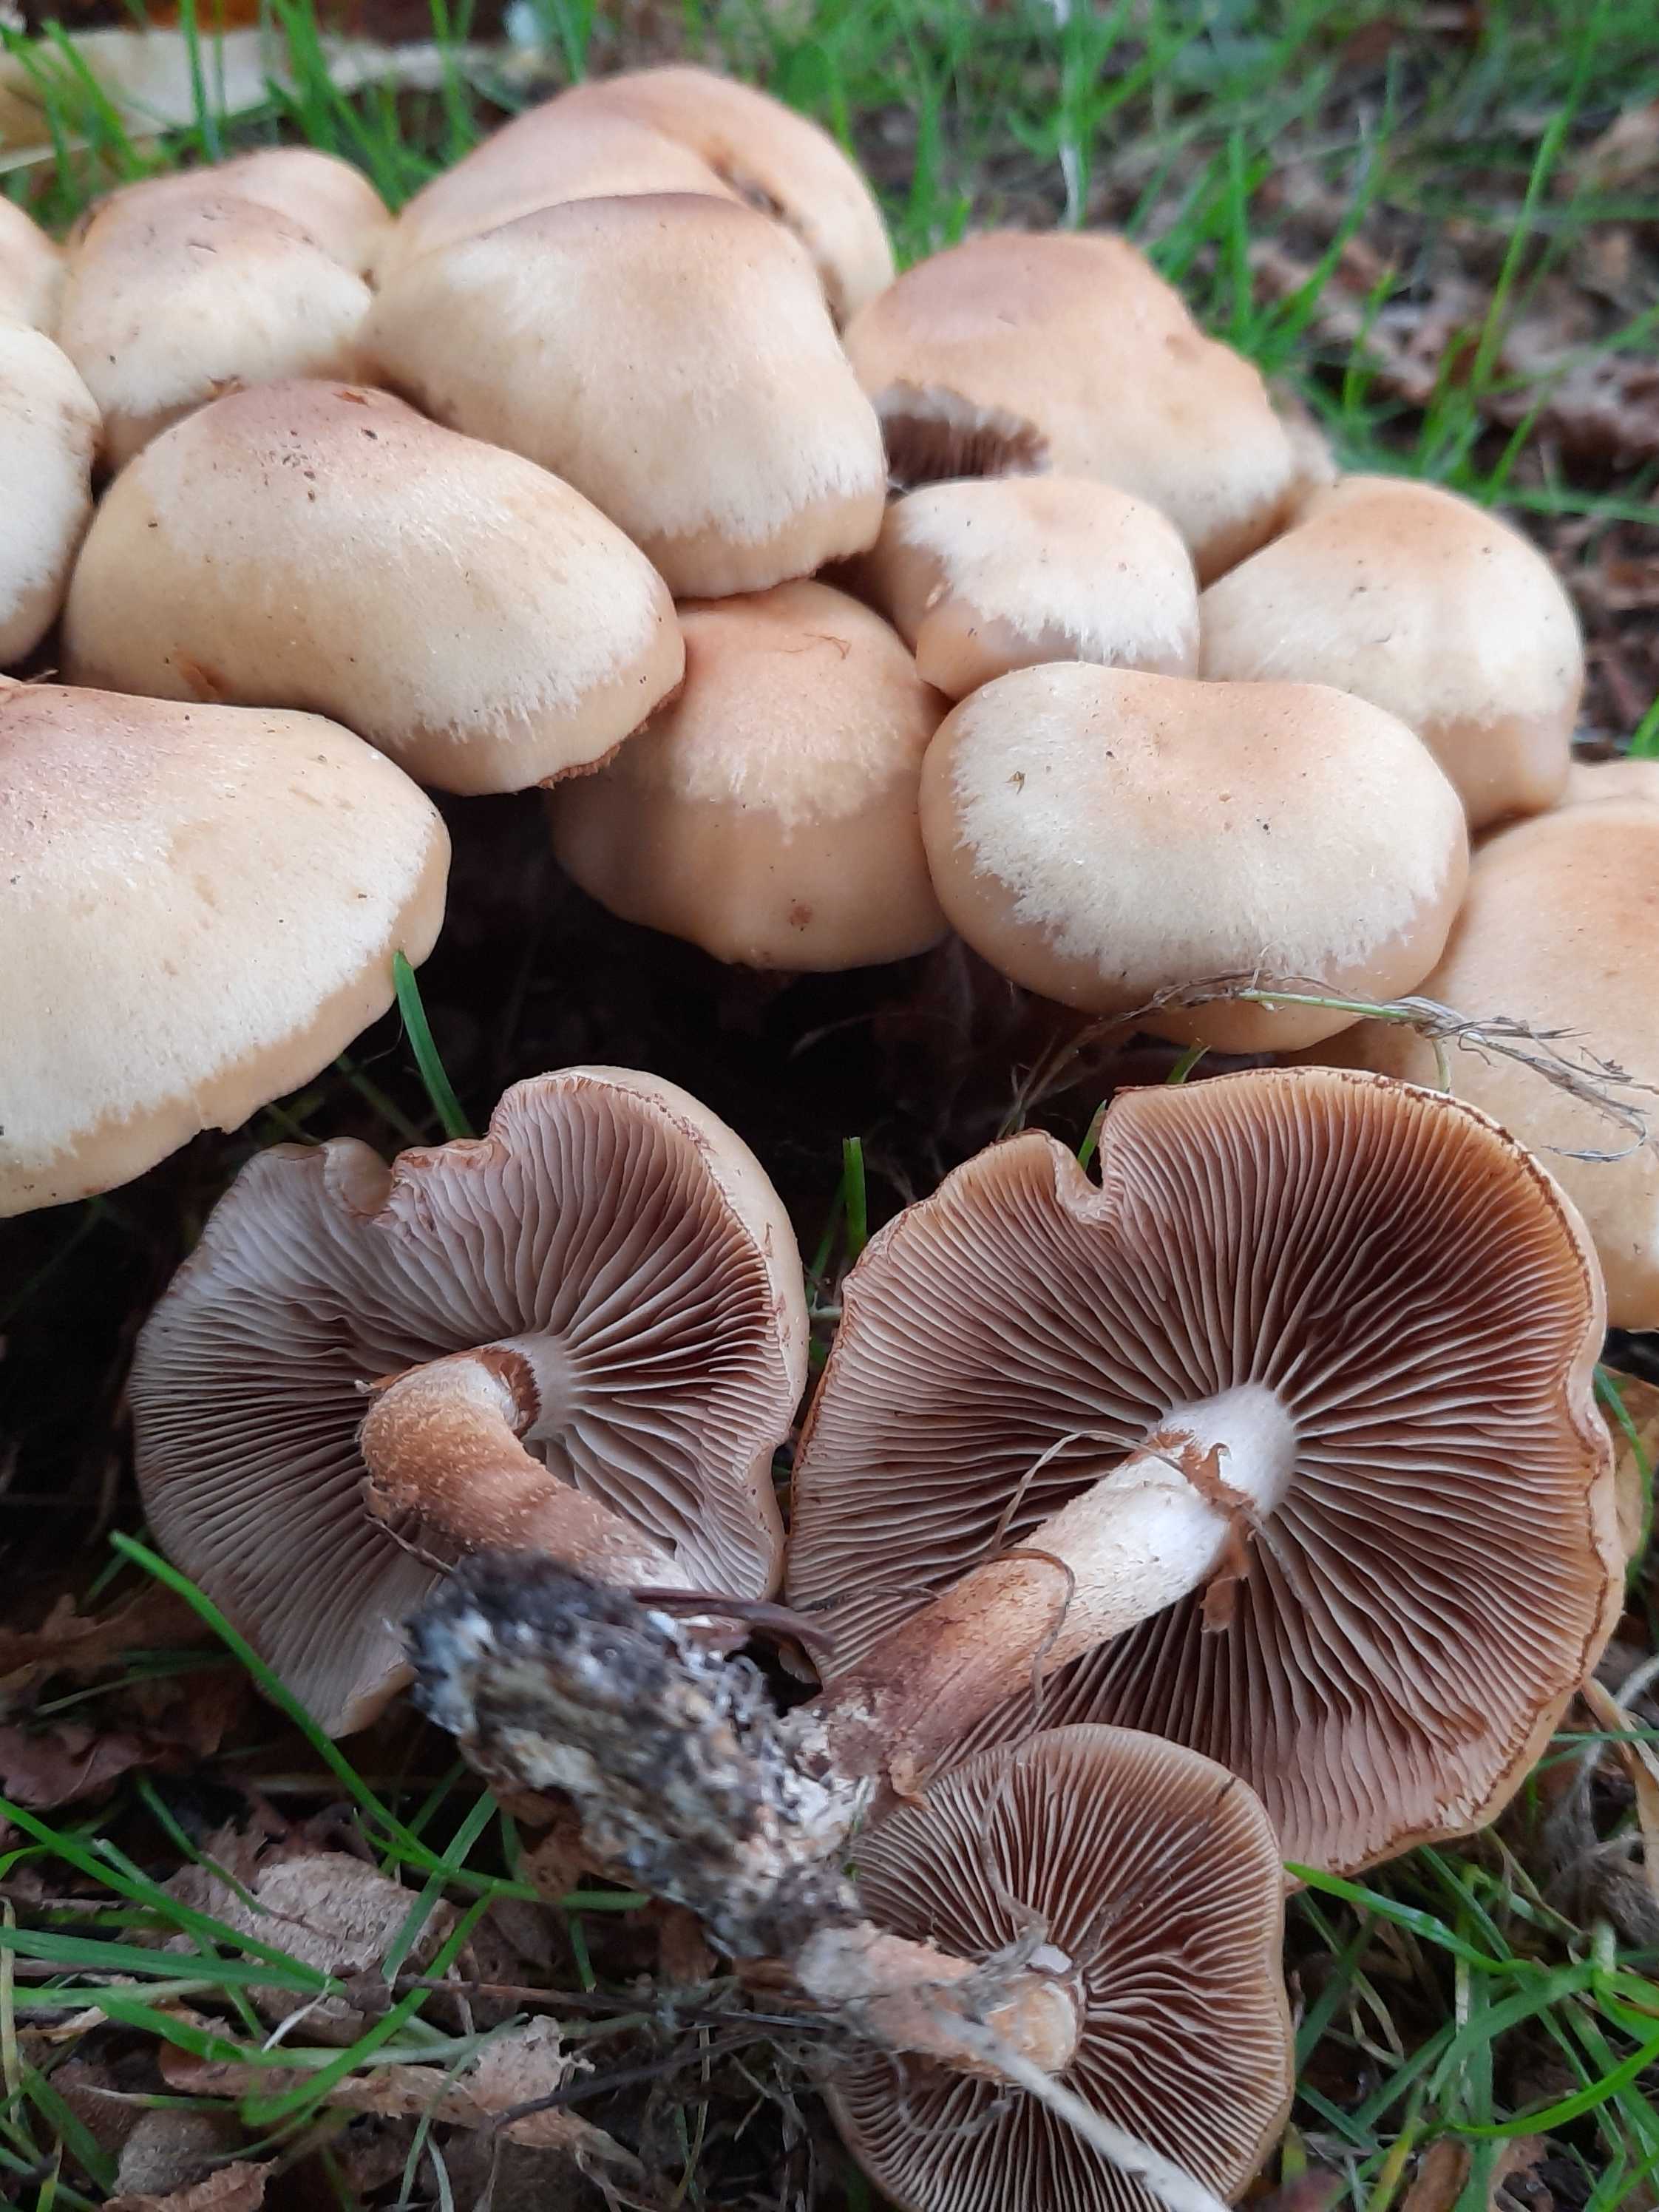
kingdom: Fungi
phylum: Basidiomycota
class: Agaricomycetes
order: Agaricales
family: Strophariaceae
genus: Kuehneromyces
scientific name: Kuehneromyces mutabilis
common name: foranderlig skælhat
